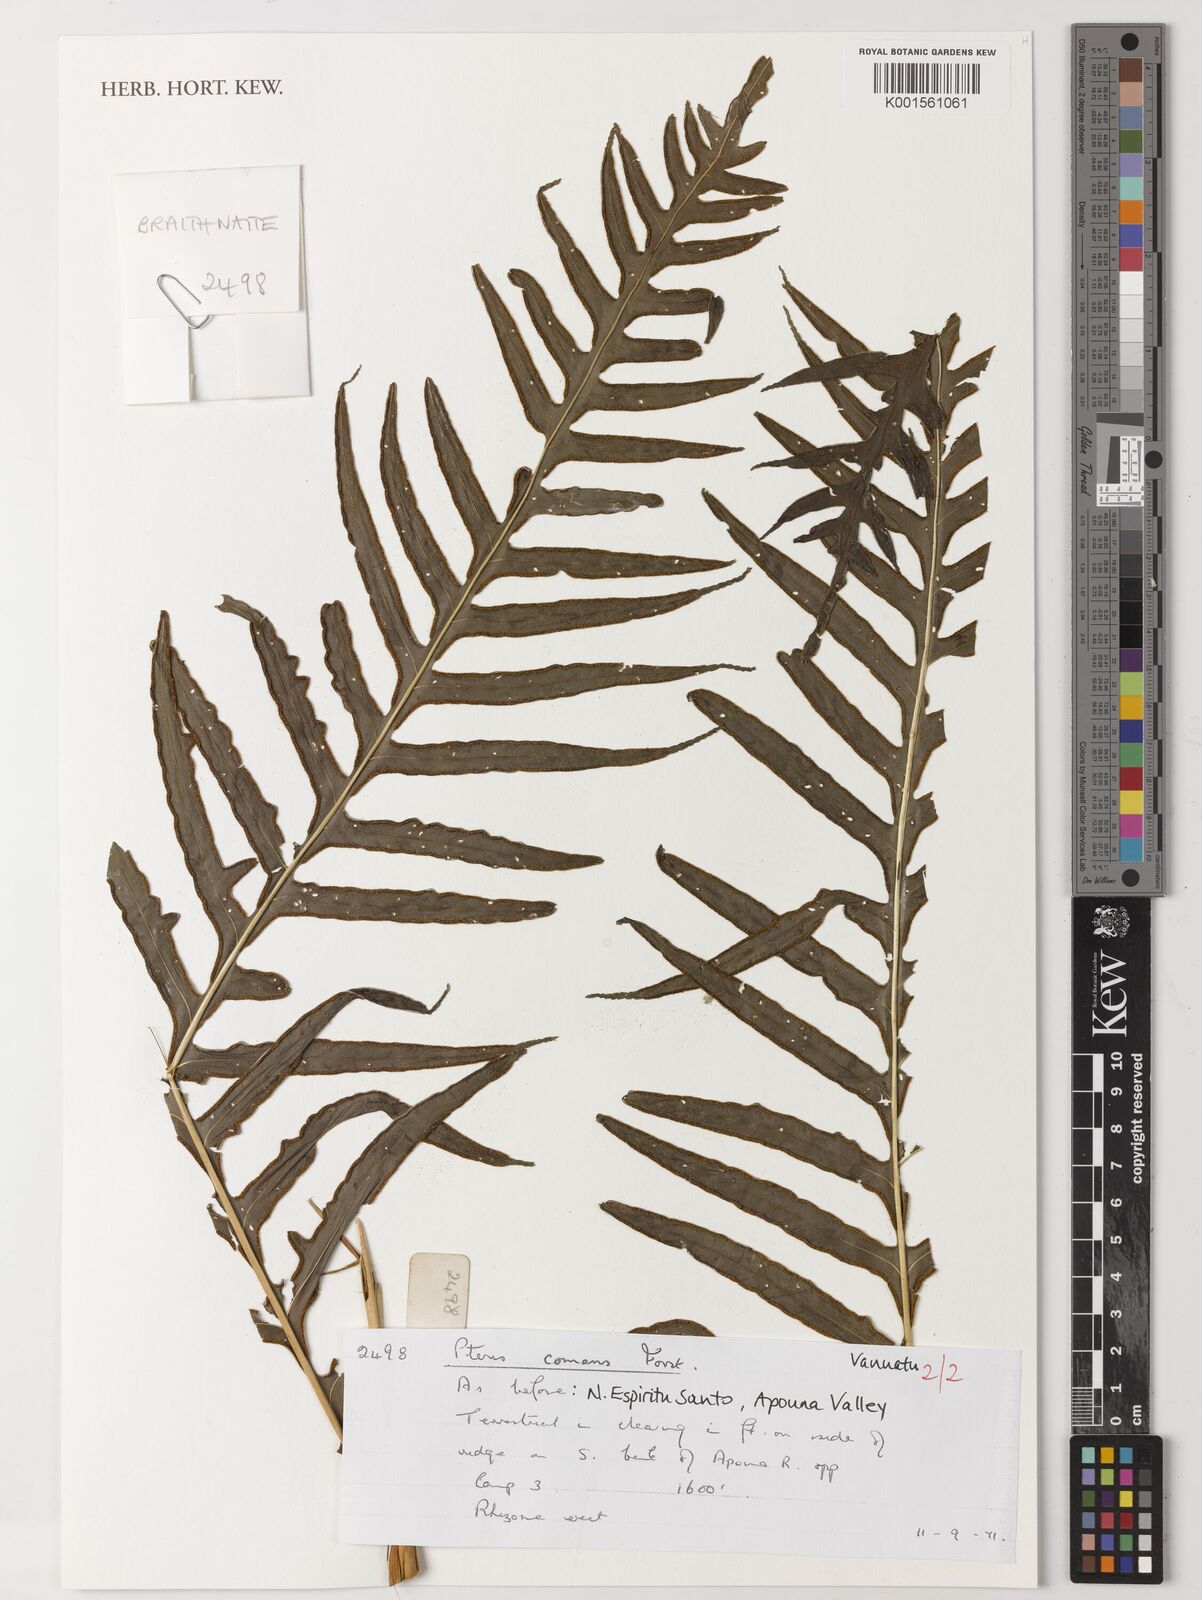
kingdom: Plantae
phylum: Tracheophyta
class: Polypodiopsida
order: Polypodiales
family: Pteridaceae
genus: Pteris
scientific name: Pteris comans
